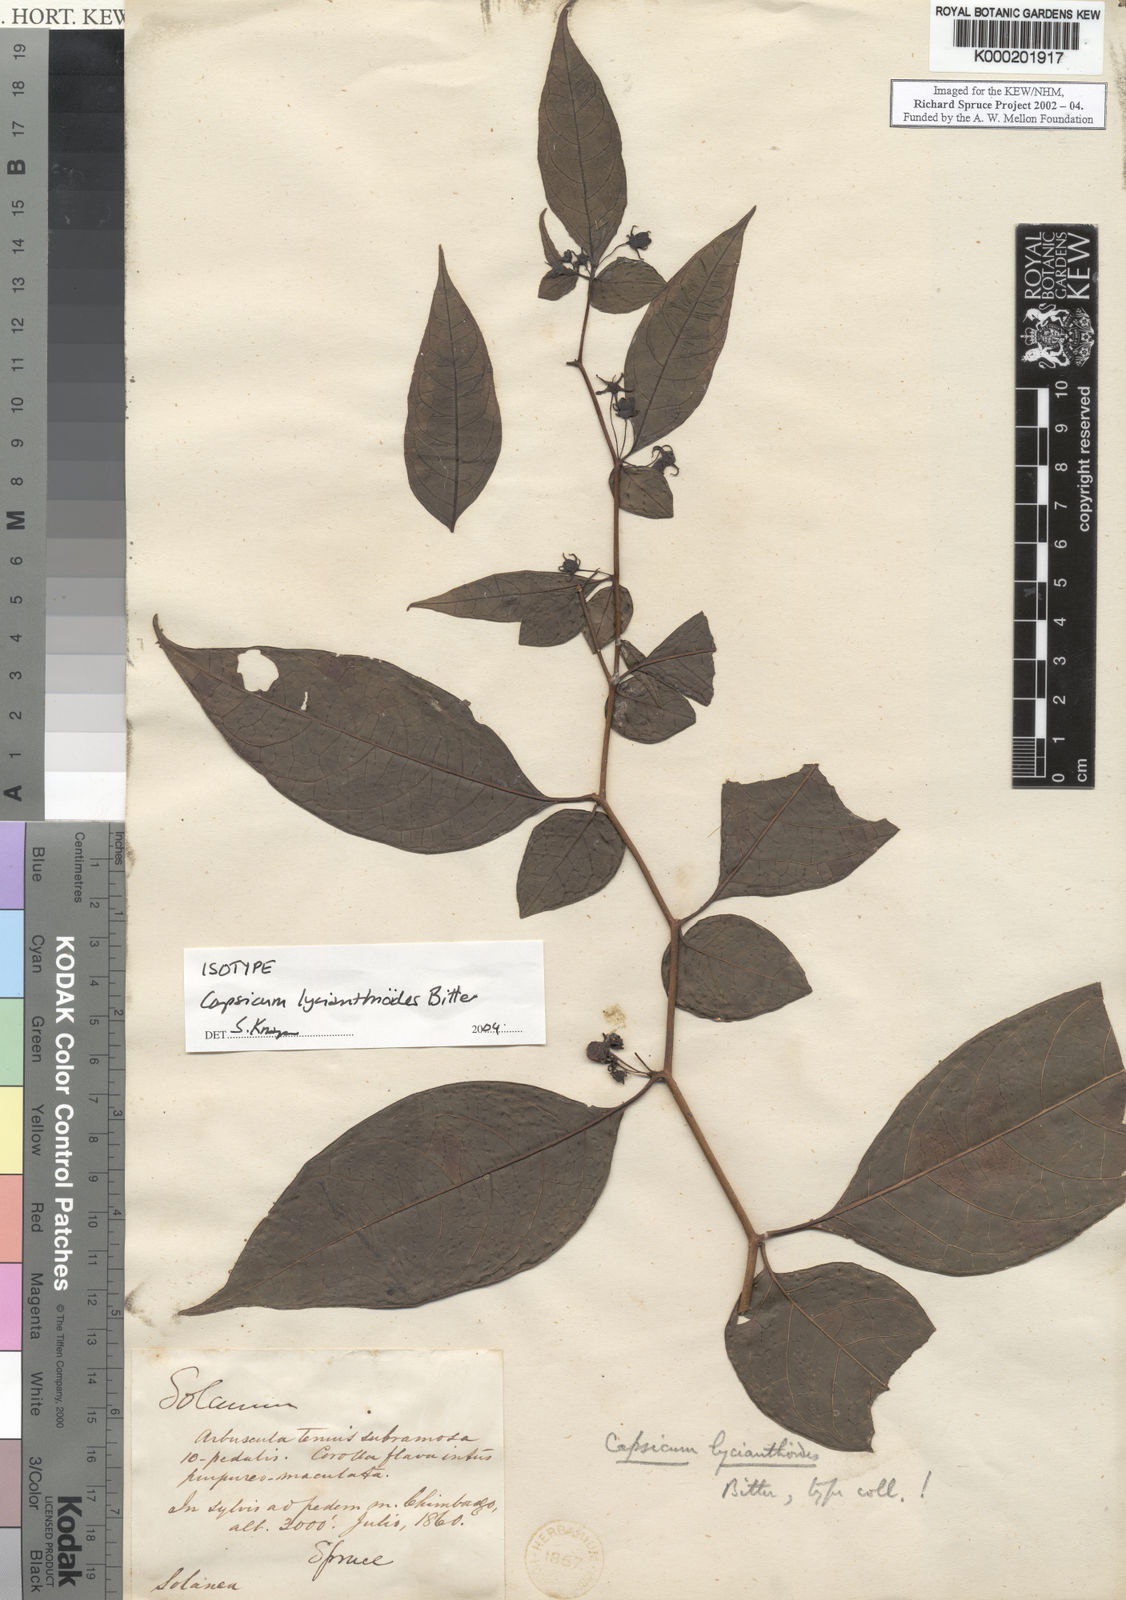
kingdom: Plantae
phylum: Tracheophyta
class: Magnoliopsida
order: Solanales
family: Solanaceae
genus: Capsicum
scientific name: Capsicum lycianthoides
